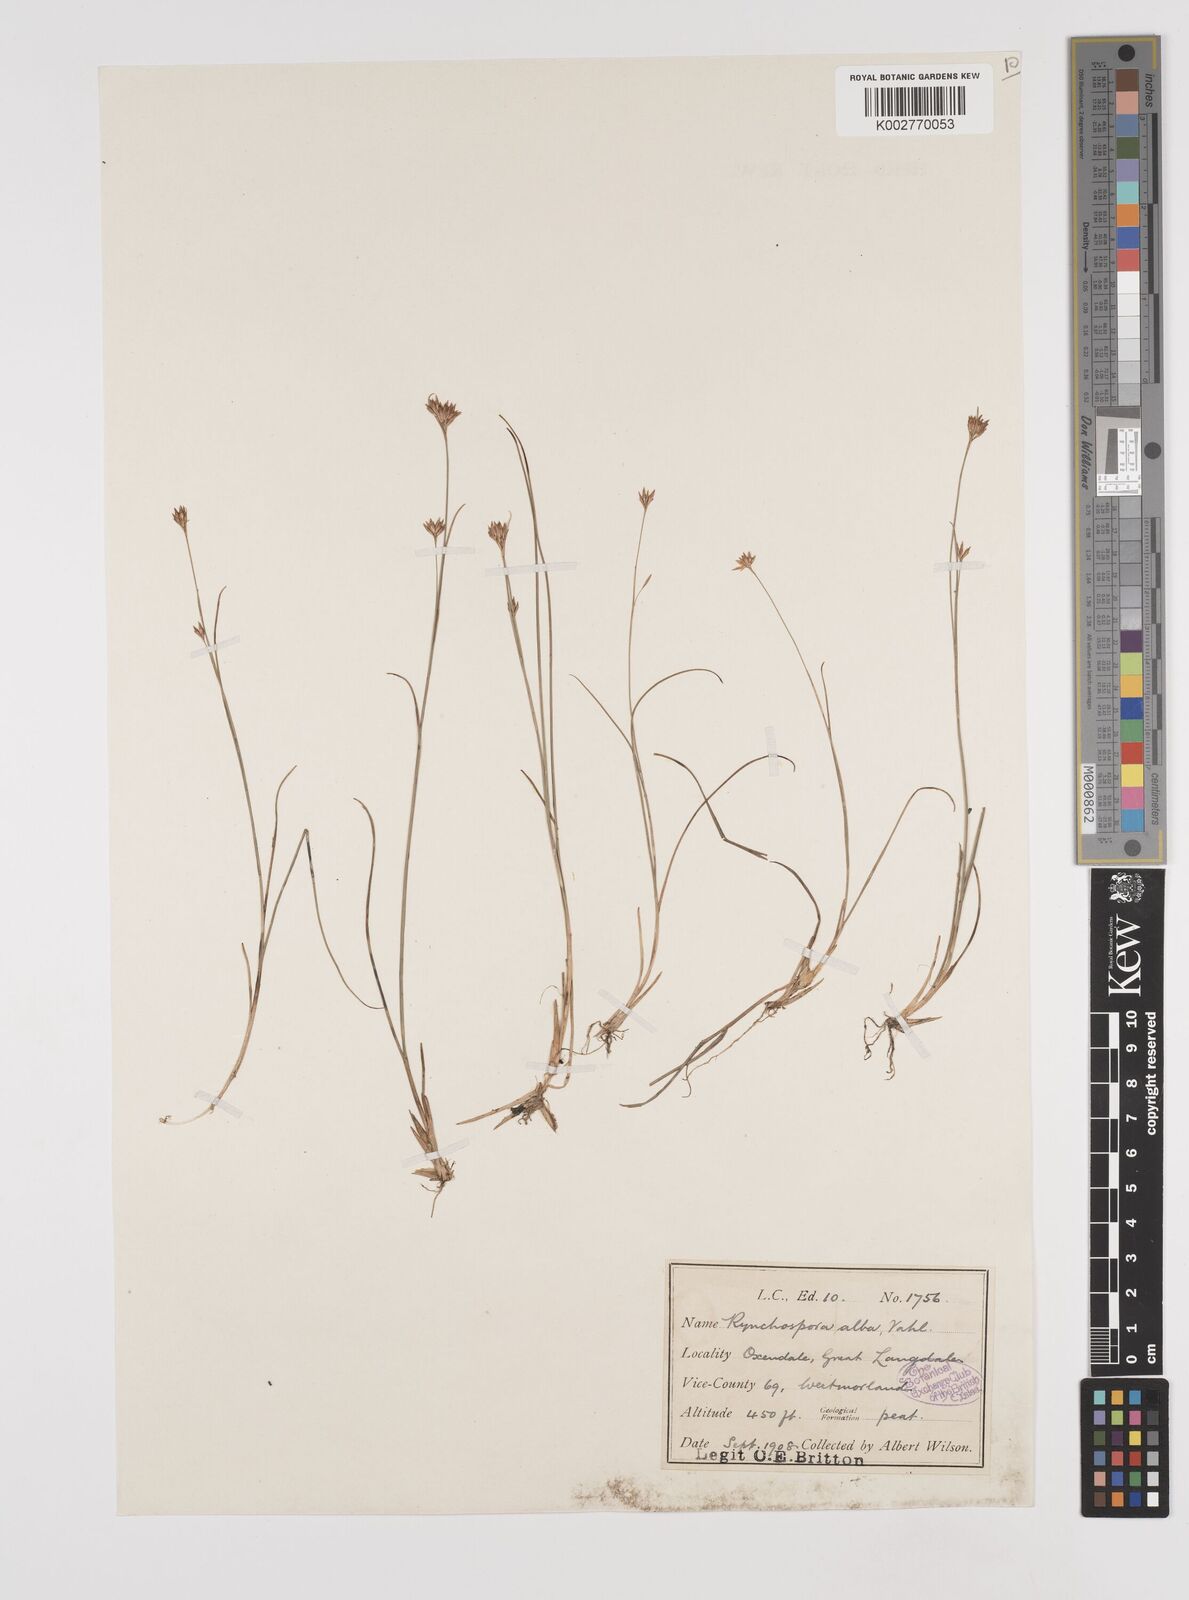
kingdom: Plantae
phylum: Tracheophyta
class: Liliopsida
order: Poales
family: Cyperaceae
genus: Rhynchospora
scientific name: Rhynchospora alba
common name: White beak-sedge
